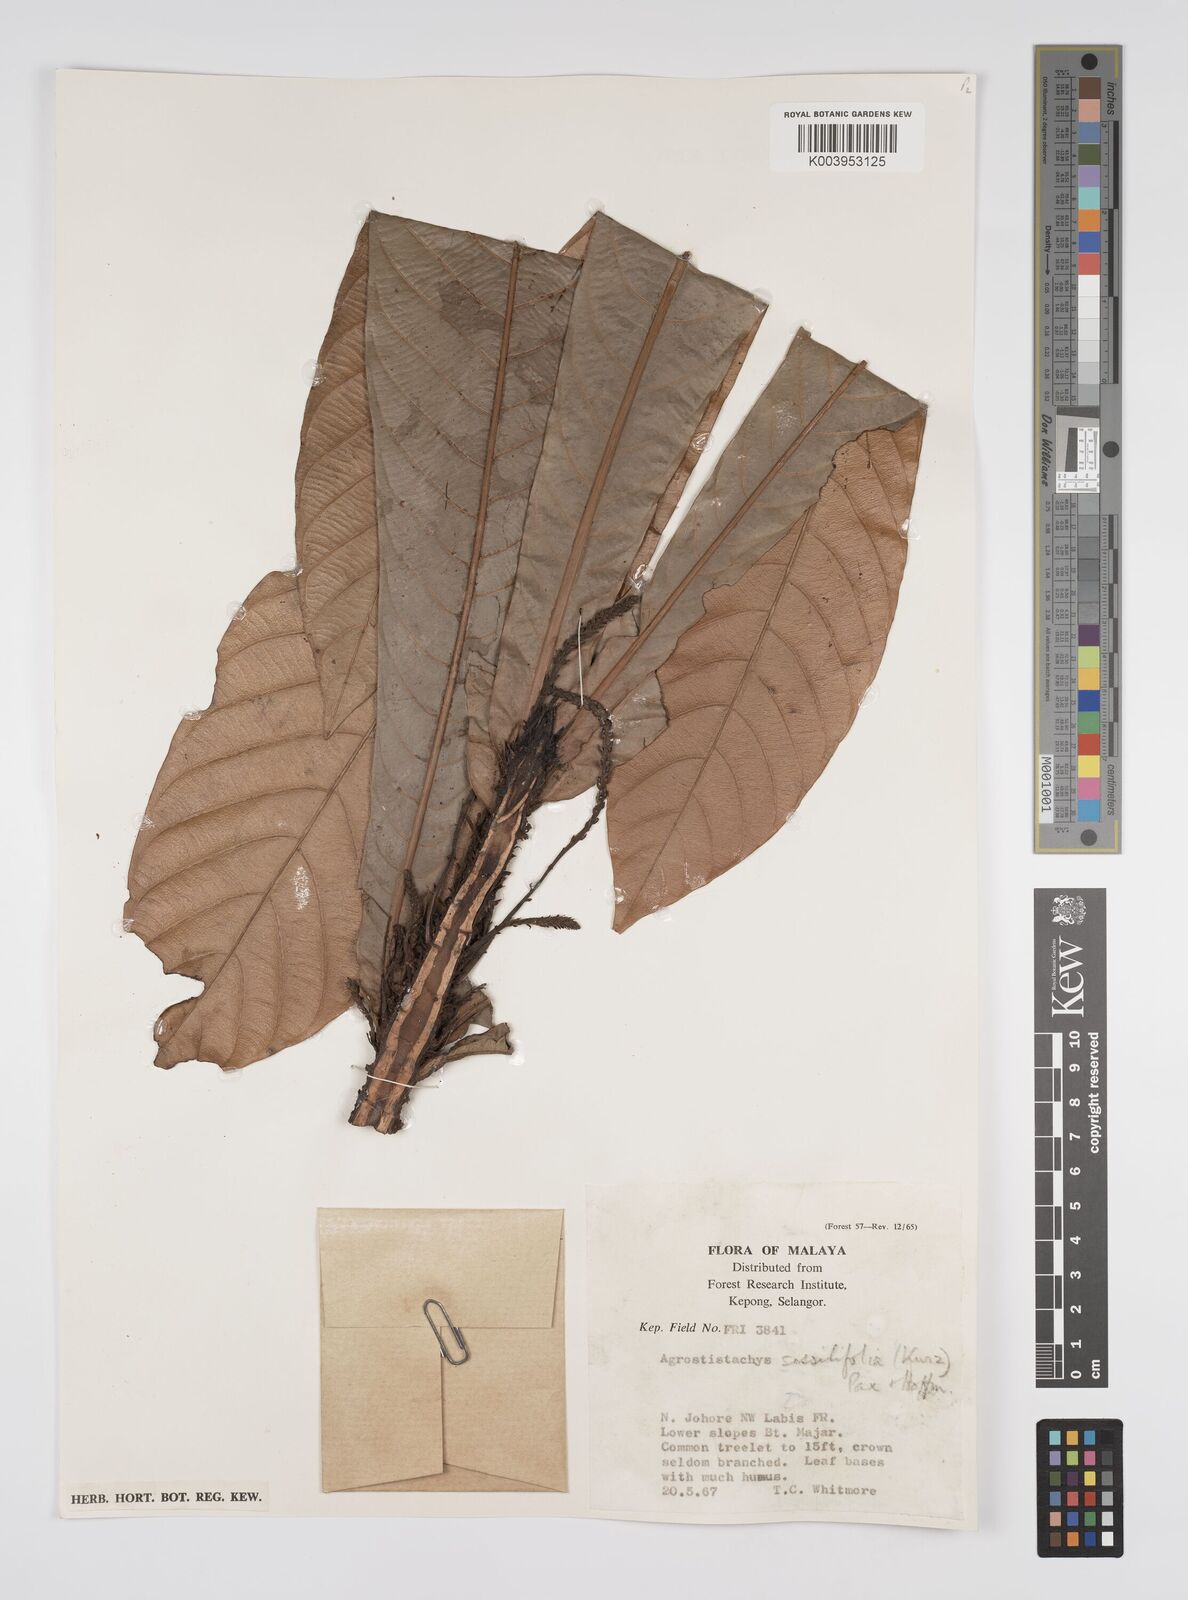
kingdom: Plantae
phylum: Tracheophyta
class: Magnoliopsida
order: Malpighiales
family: Euphorbiaceae
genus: Agrostistachys
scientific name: Agrostistachys sessilifolia
